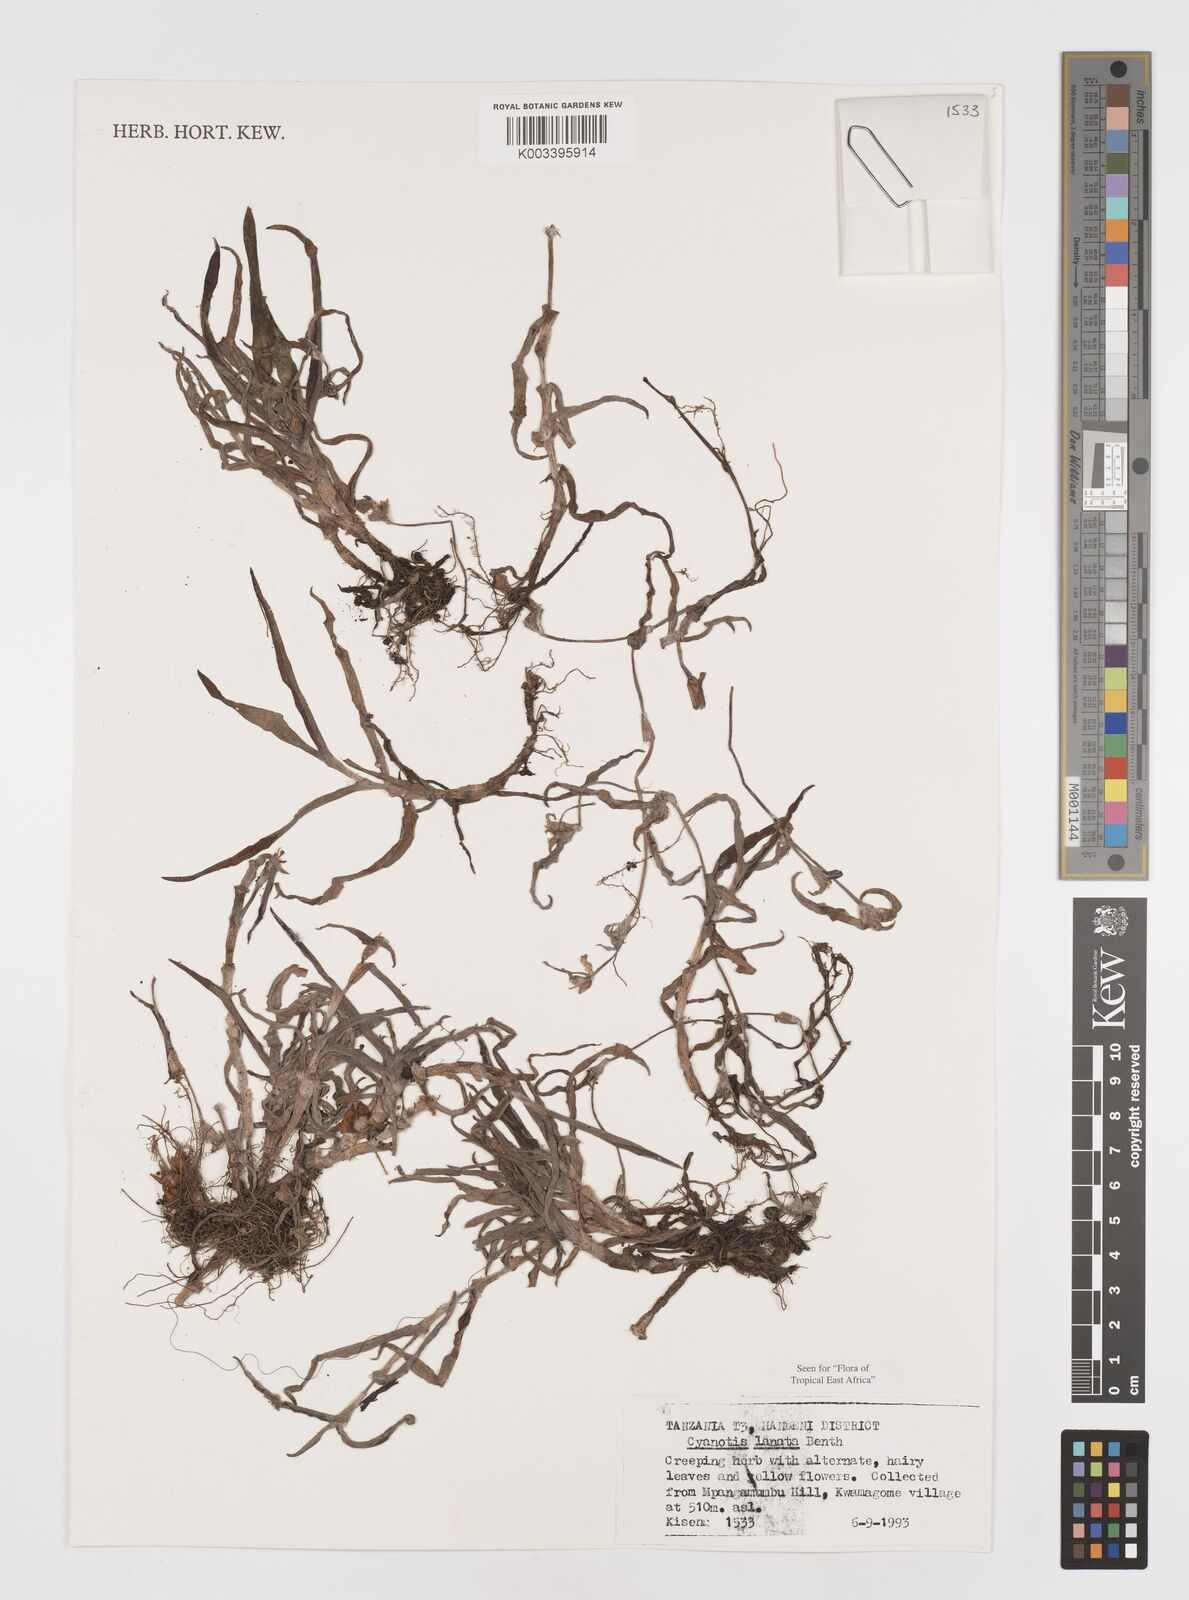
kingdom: Plantae
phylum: Tracheophyta
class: Liliopsida
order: Commelinales
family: Commelinaceae
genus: Cyanotis
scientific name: Cyanotis lanata
